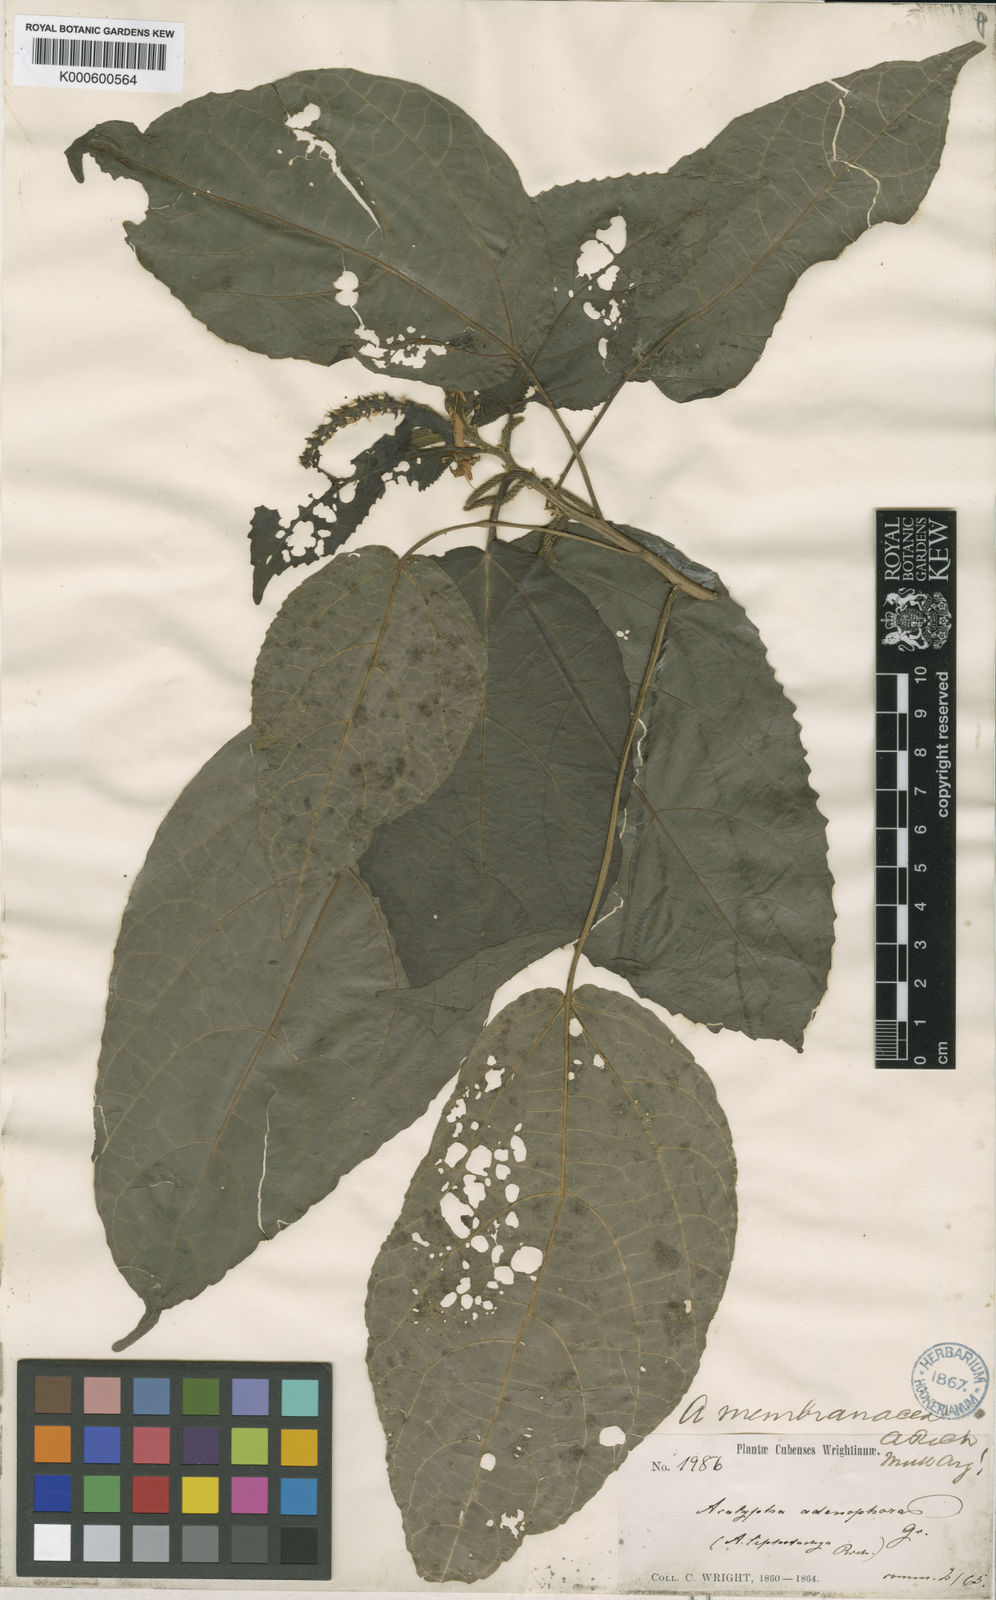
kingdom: Plantae
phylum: Tracheophyta
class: Magnoliopsida
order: Malpighiales
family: Euphorbiaceae
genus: Acalypha
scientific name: Acalypha membranacea
